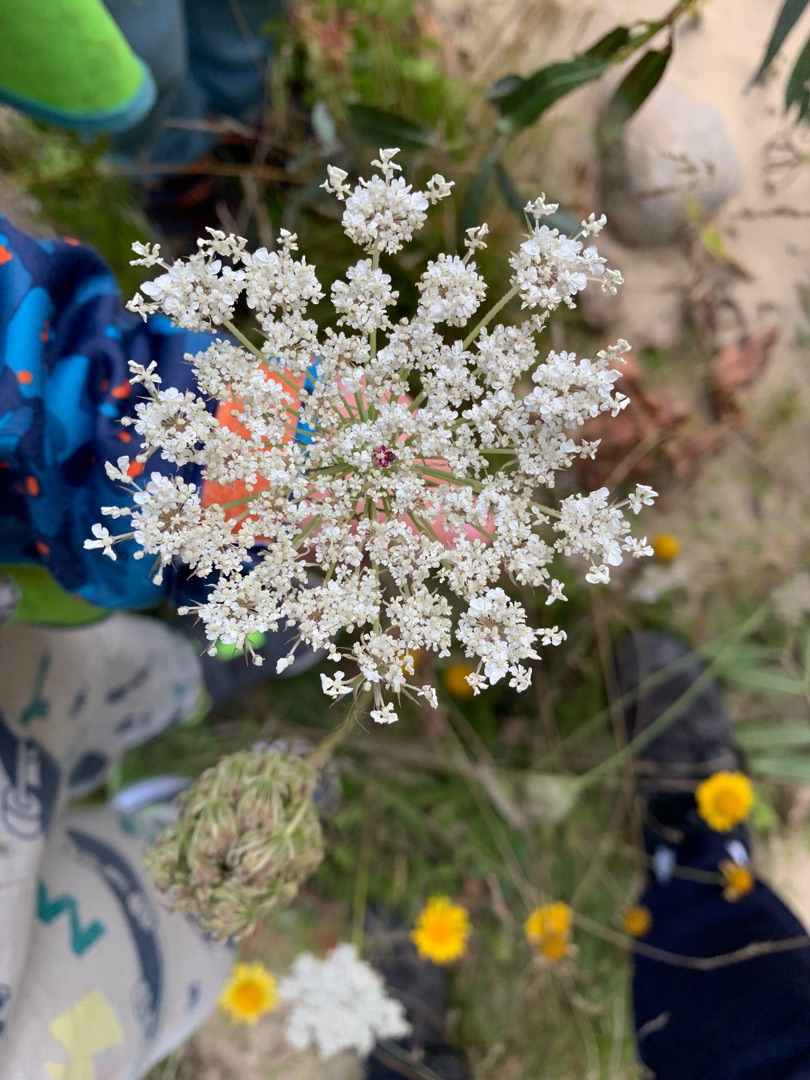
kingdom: Plantae
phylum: Tracheophyta
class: Magnoliopsida
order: Apiales
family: Apiaceae
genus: Daucus
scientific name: Daucus carota
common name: Gulerod
